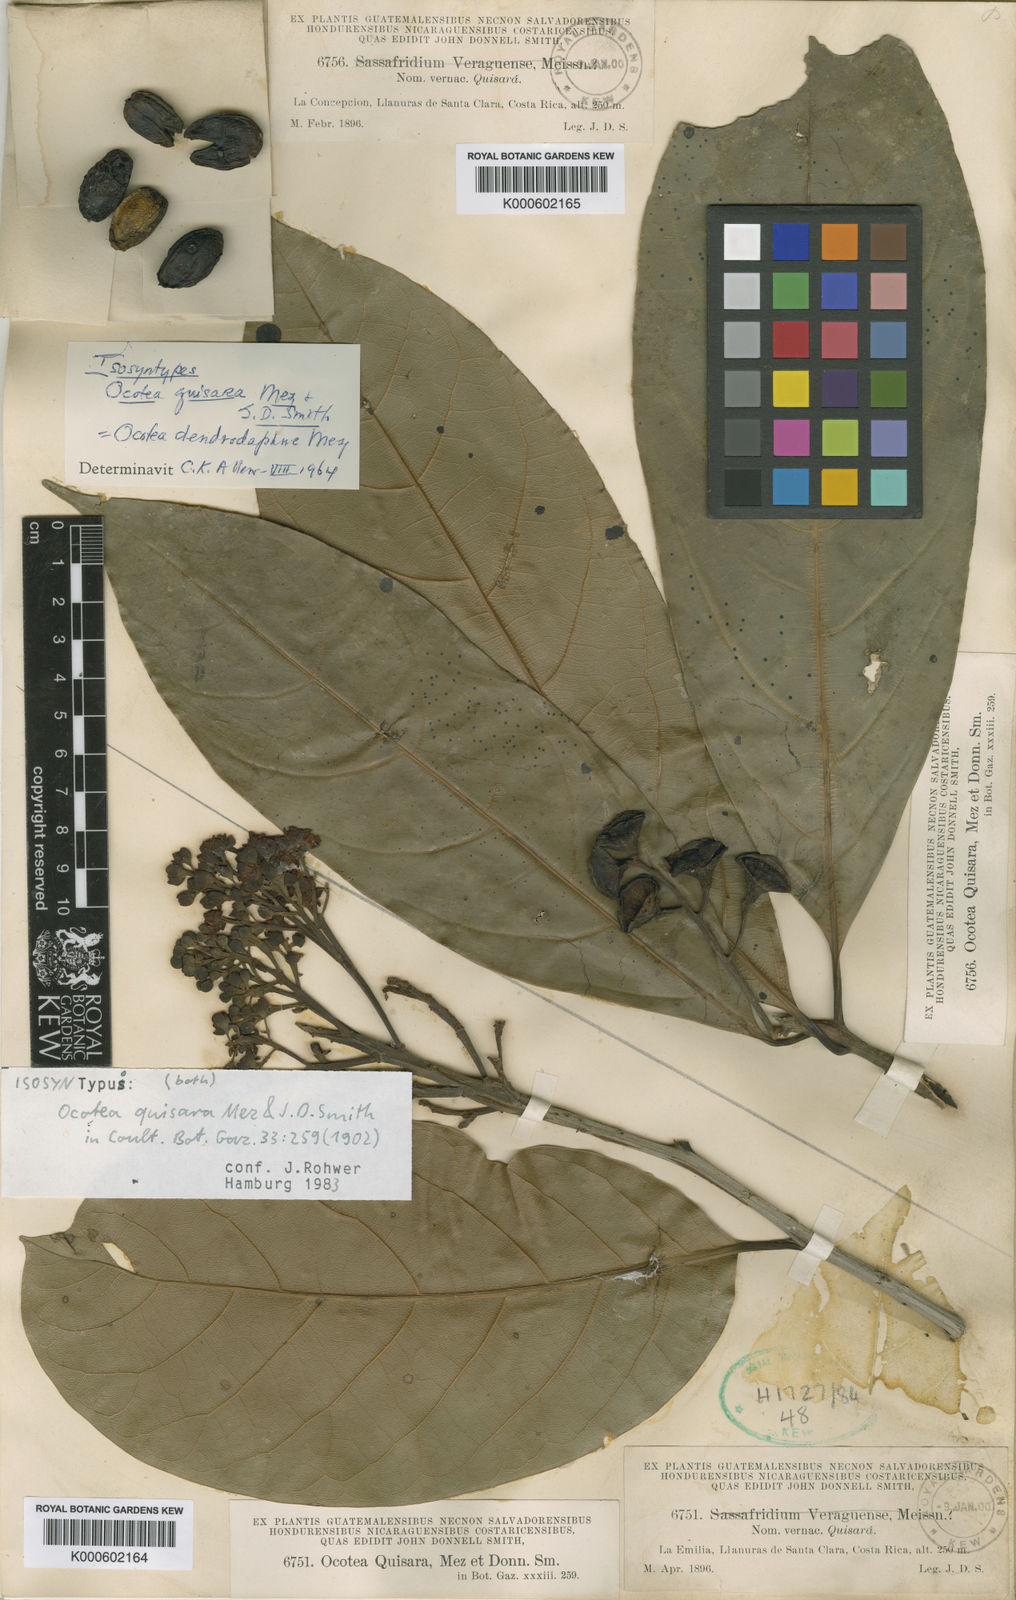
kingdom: Plantae
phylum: Tracheophyta
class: Magnoliopsida
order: Laurales
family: Lauraceae
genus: Mespilodaphne
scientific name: Mespilodaphne macrophylla
